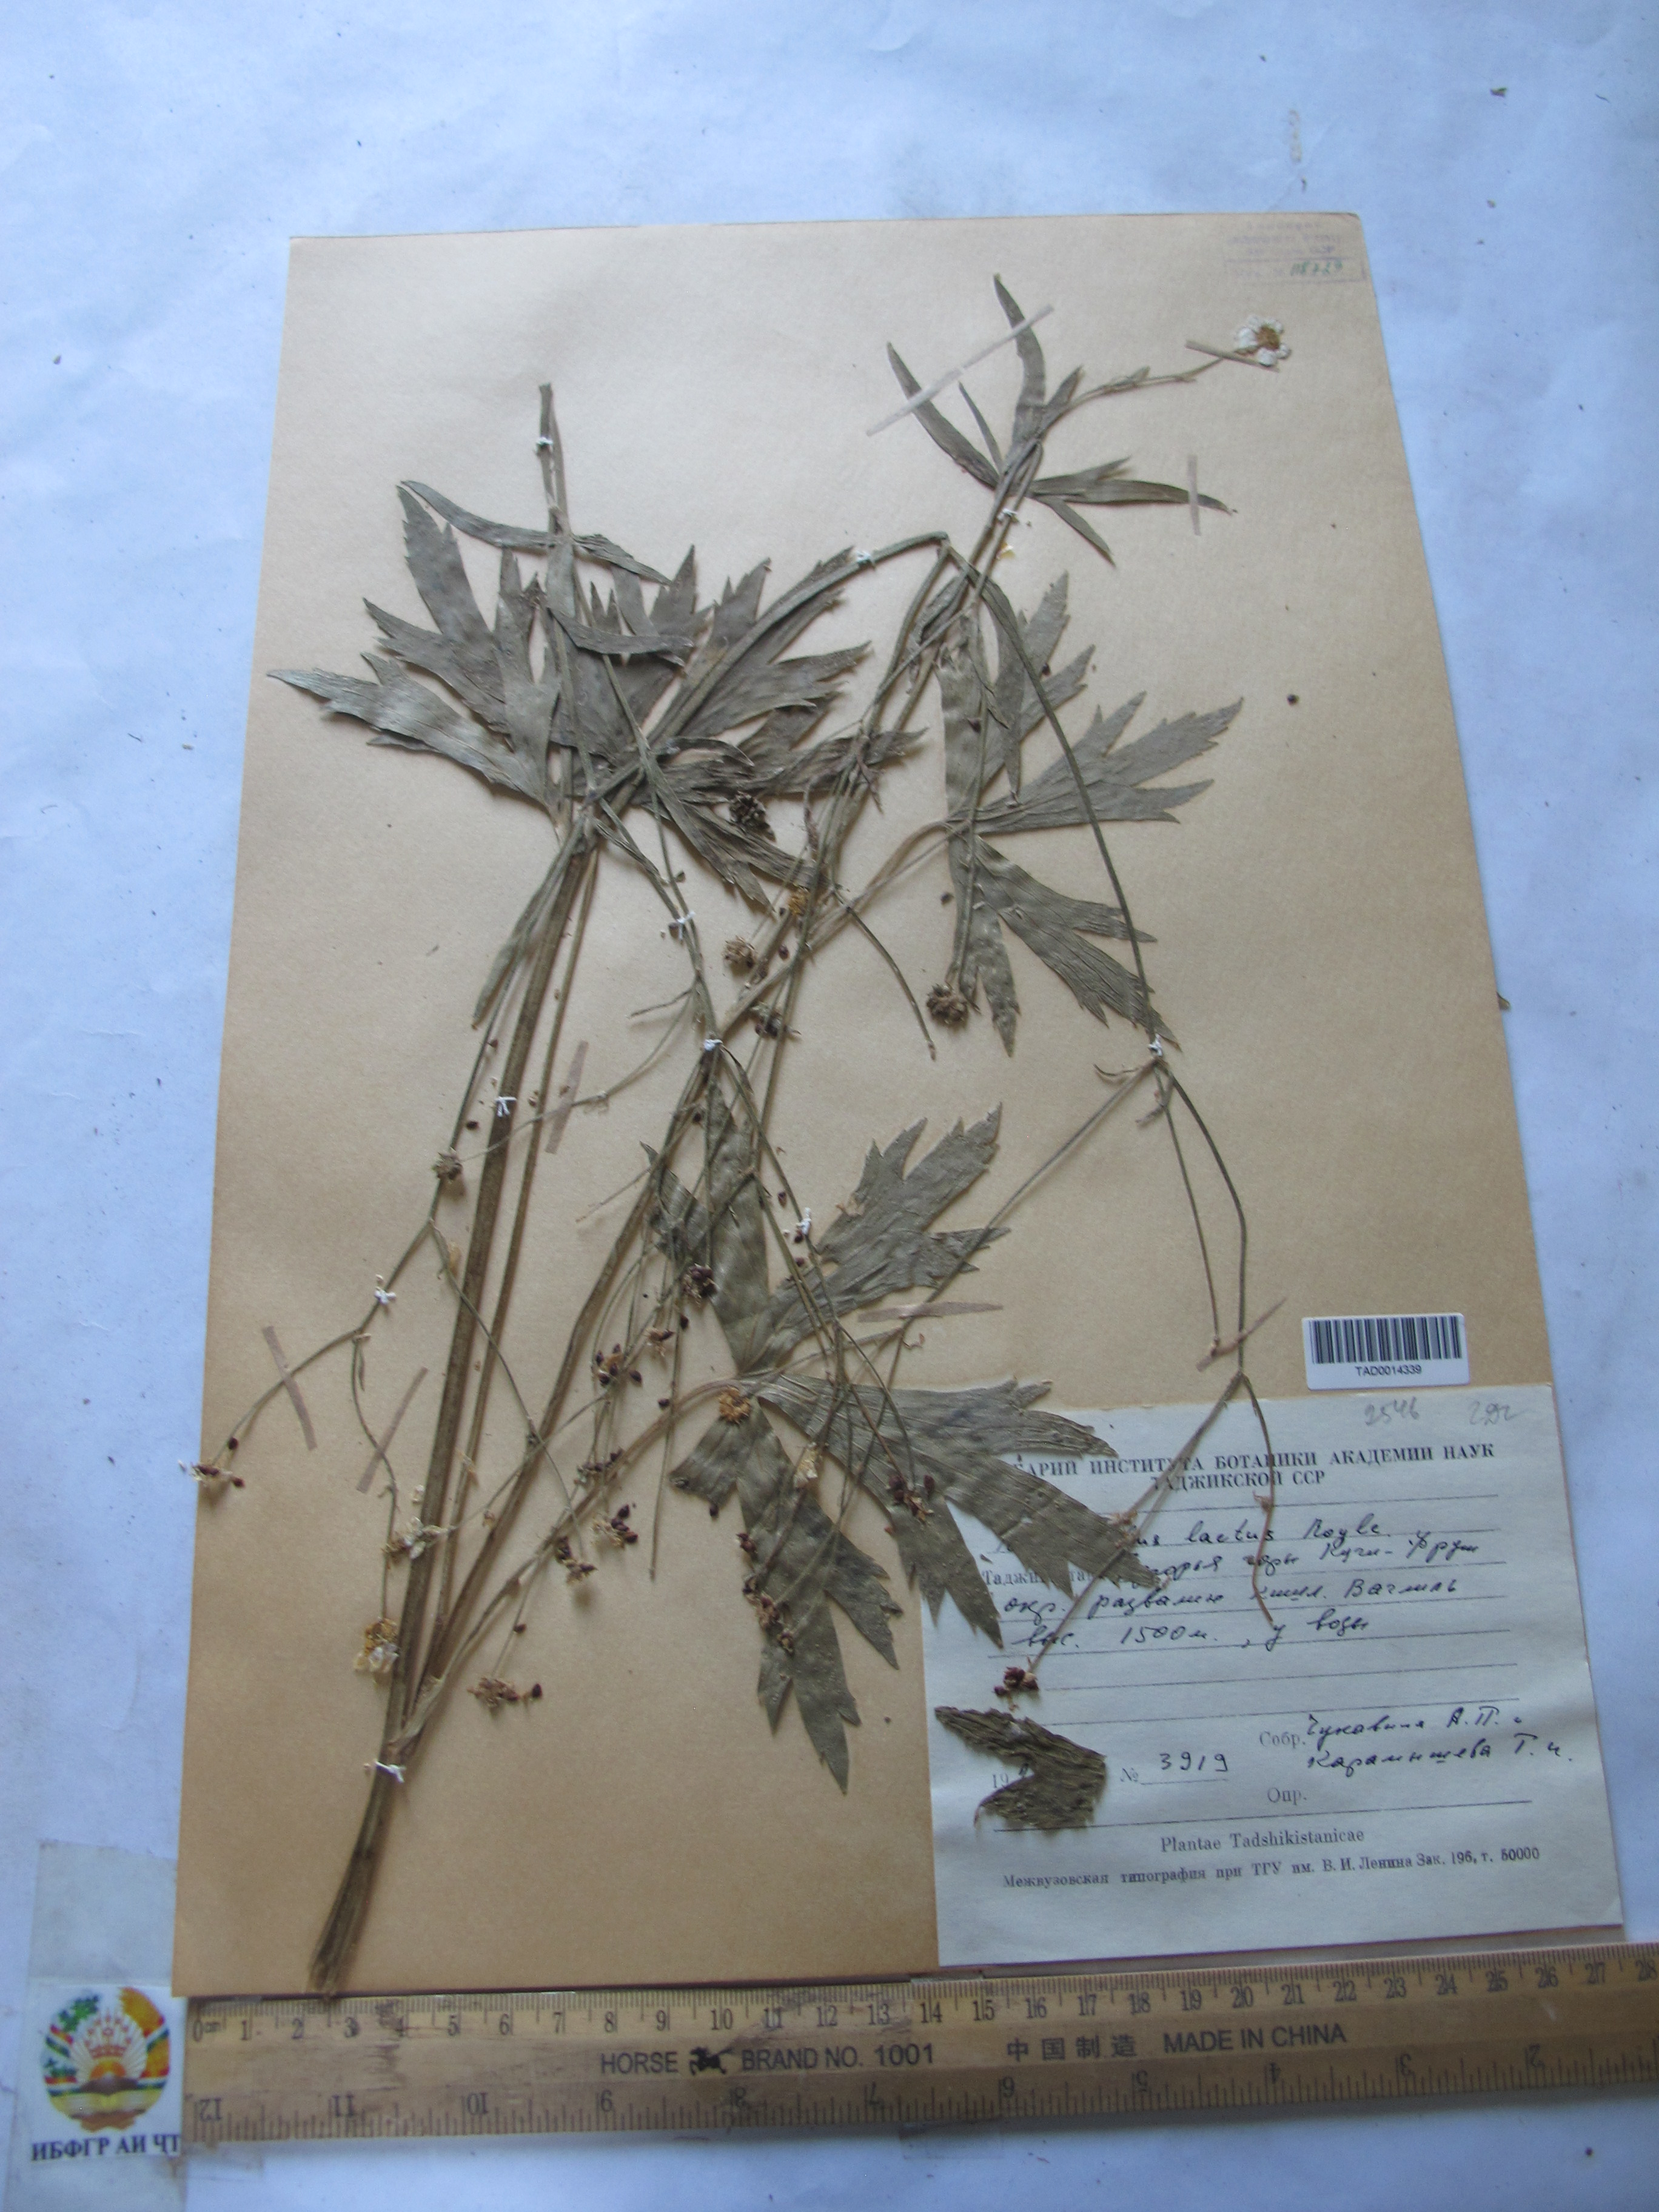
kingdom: Plantae
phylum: Tracheophyta
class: Magnoliopsida
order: Ranunculales
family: Ranunculaceae
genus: Ranunculus
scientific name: Ranunculus distans
